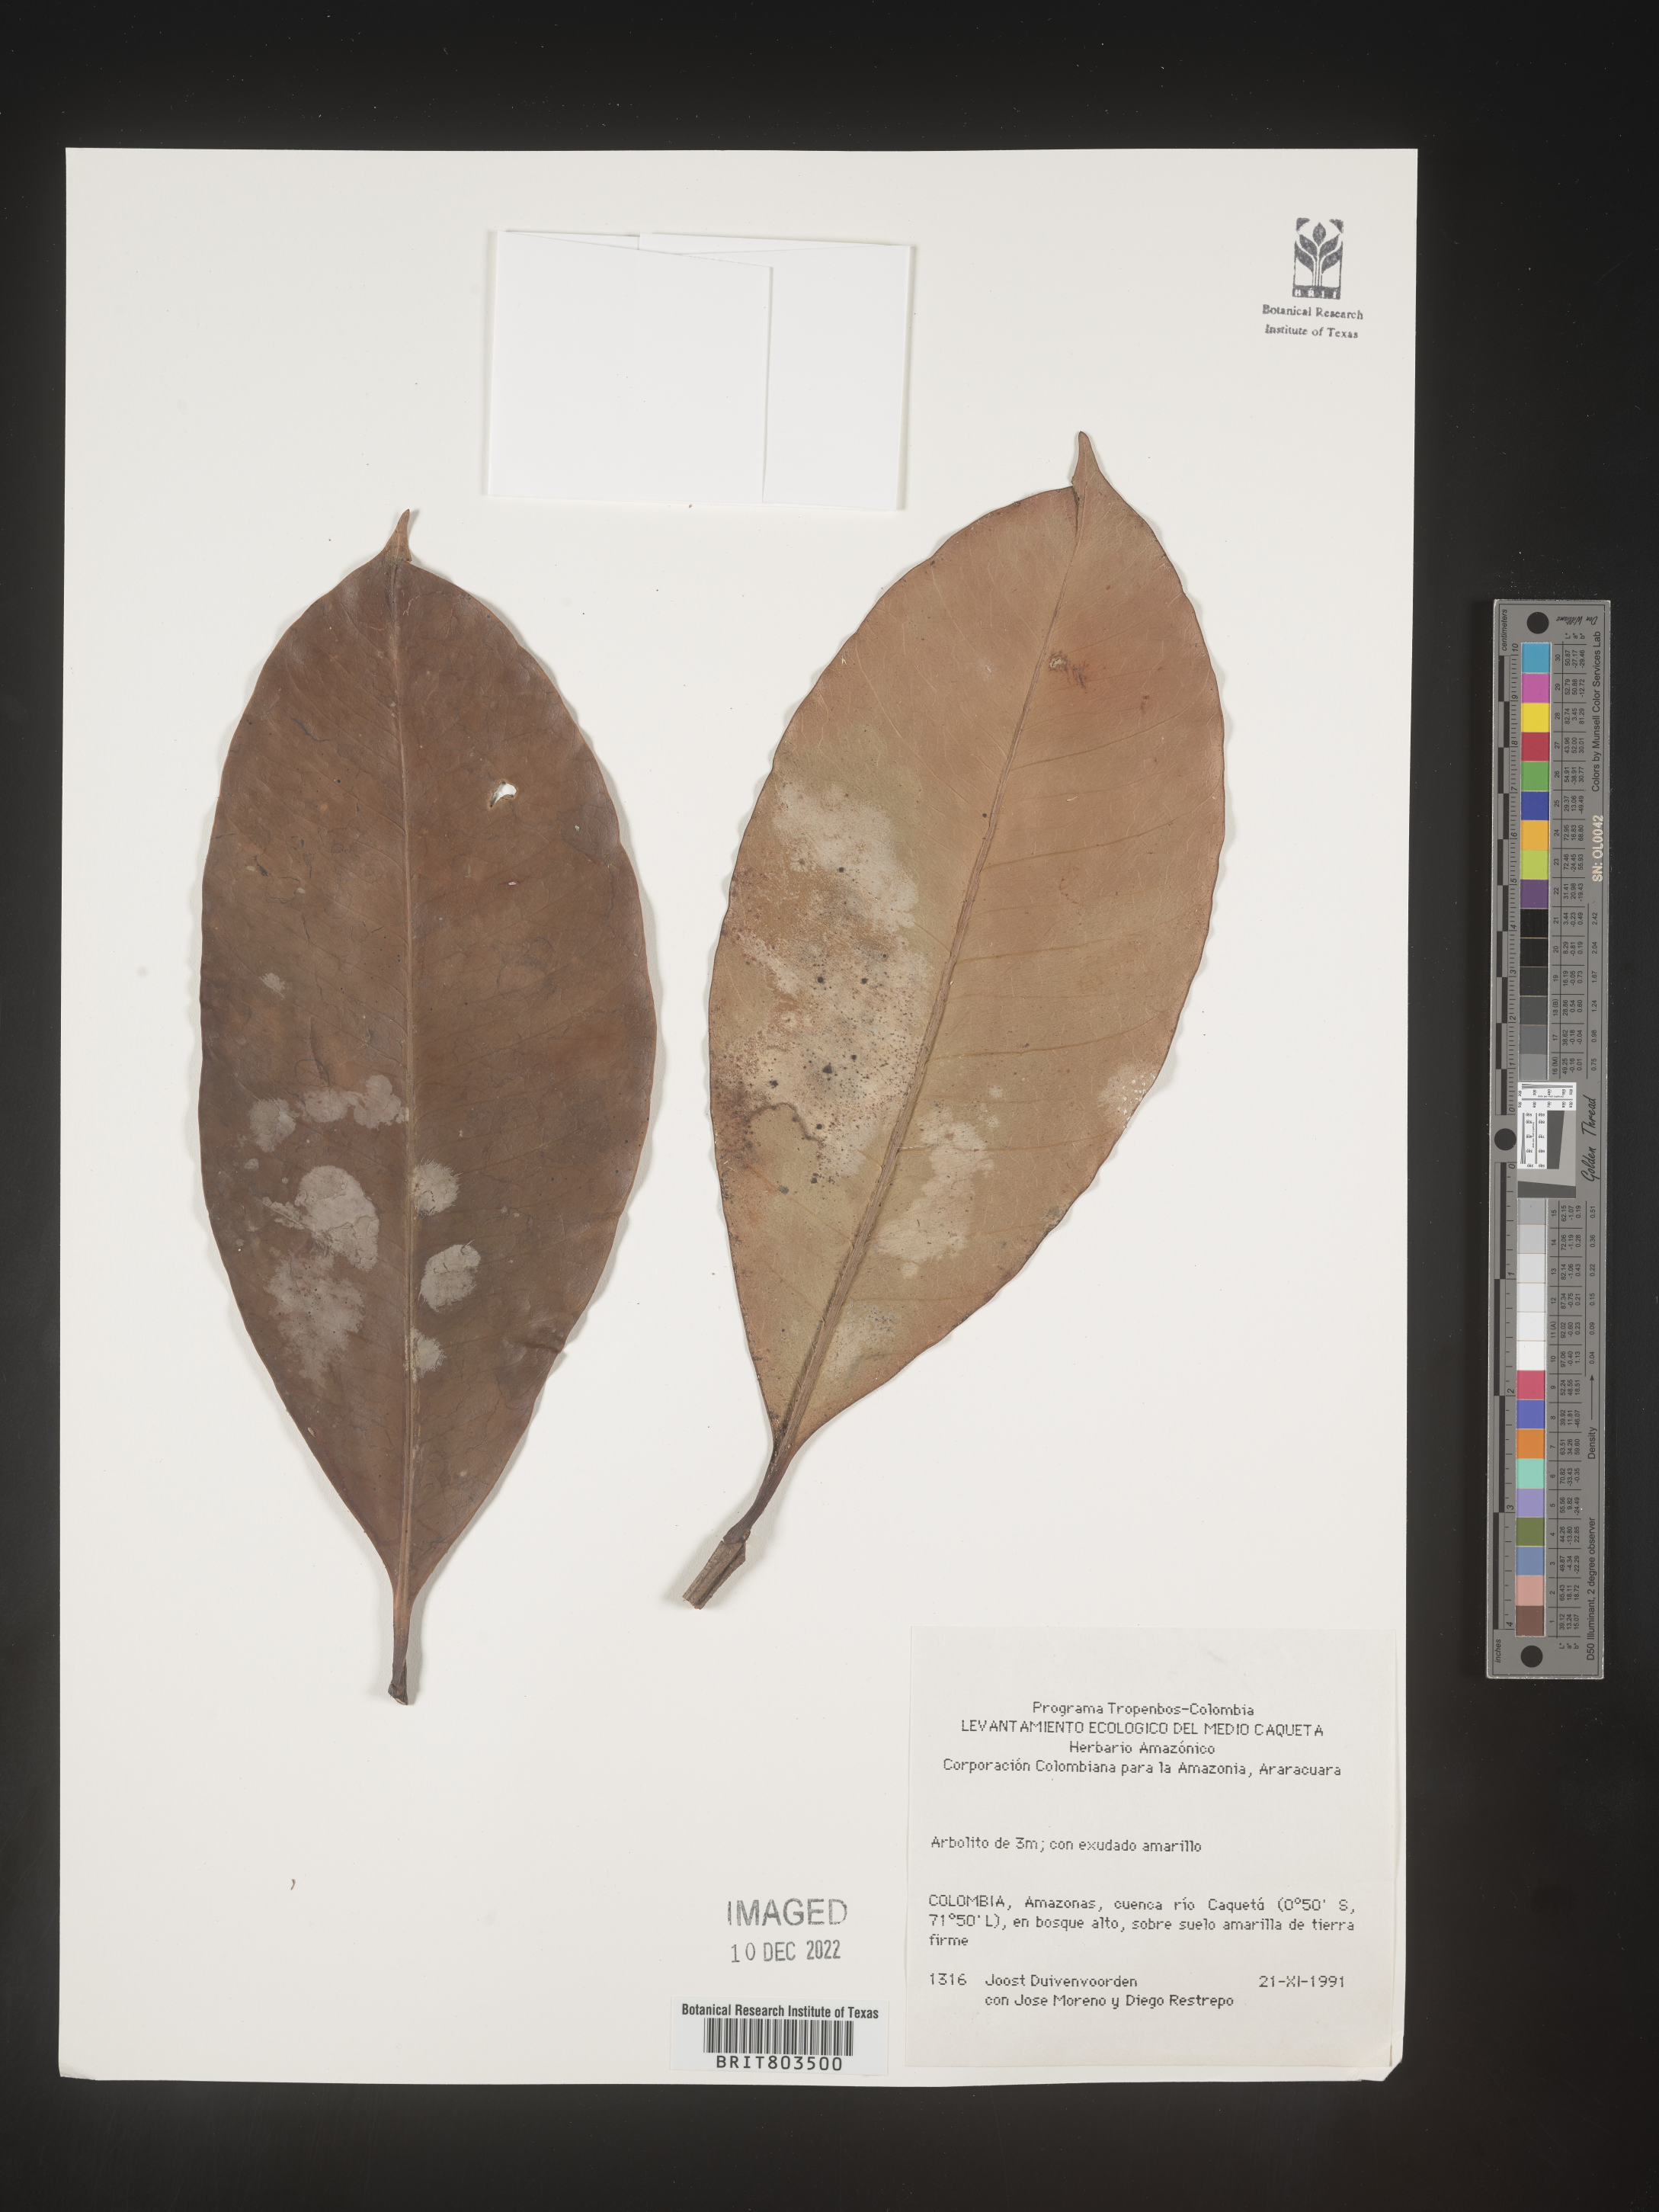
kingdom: Plantae
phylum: Tracheophyta
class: Magnoliopsida
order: Malpighiales
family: Clusiaceae
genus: Tovomita
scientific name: Tovomita
